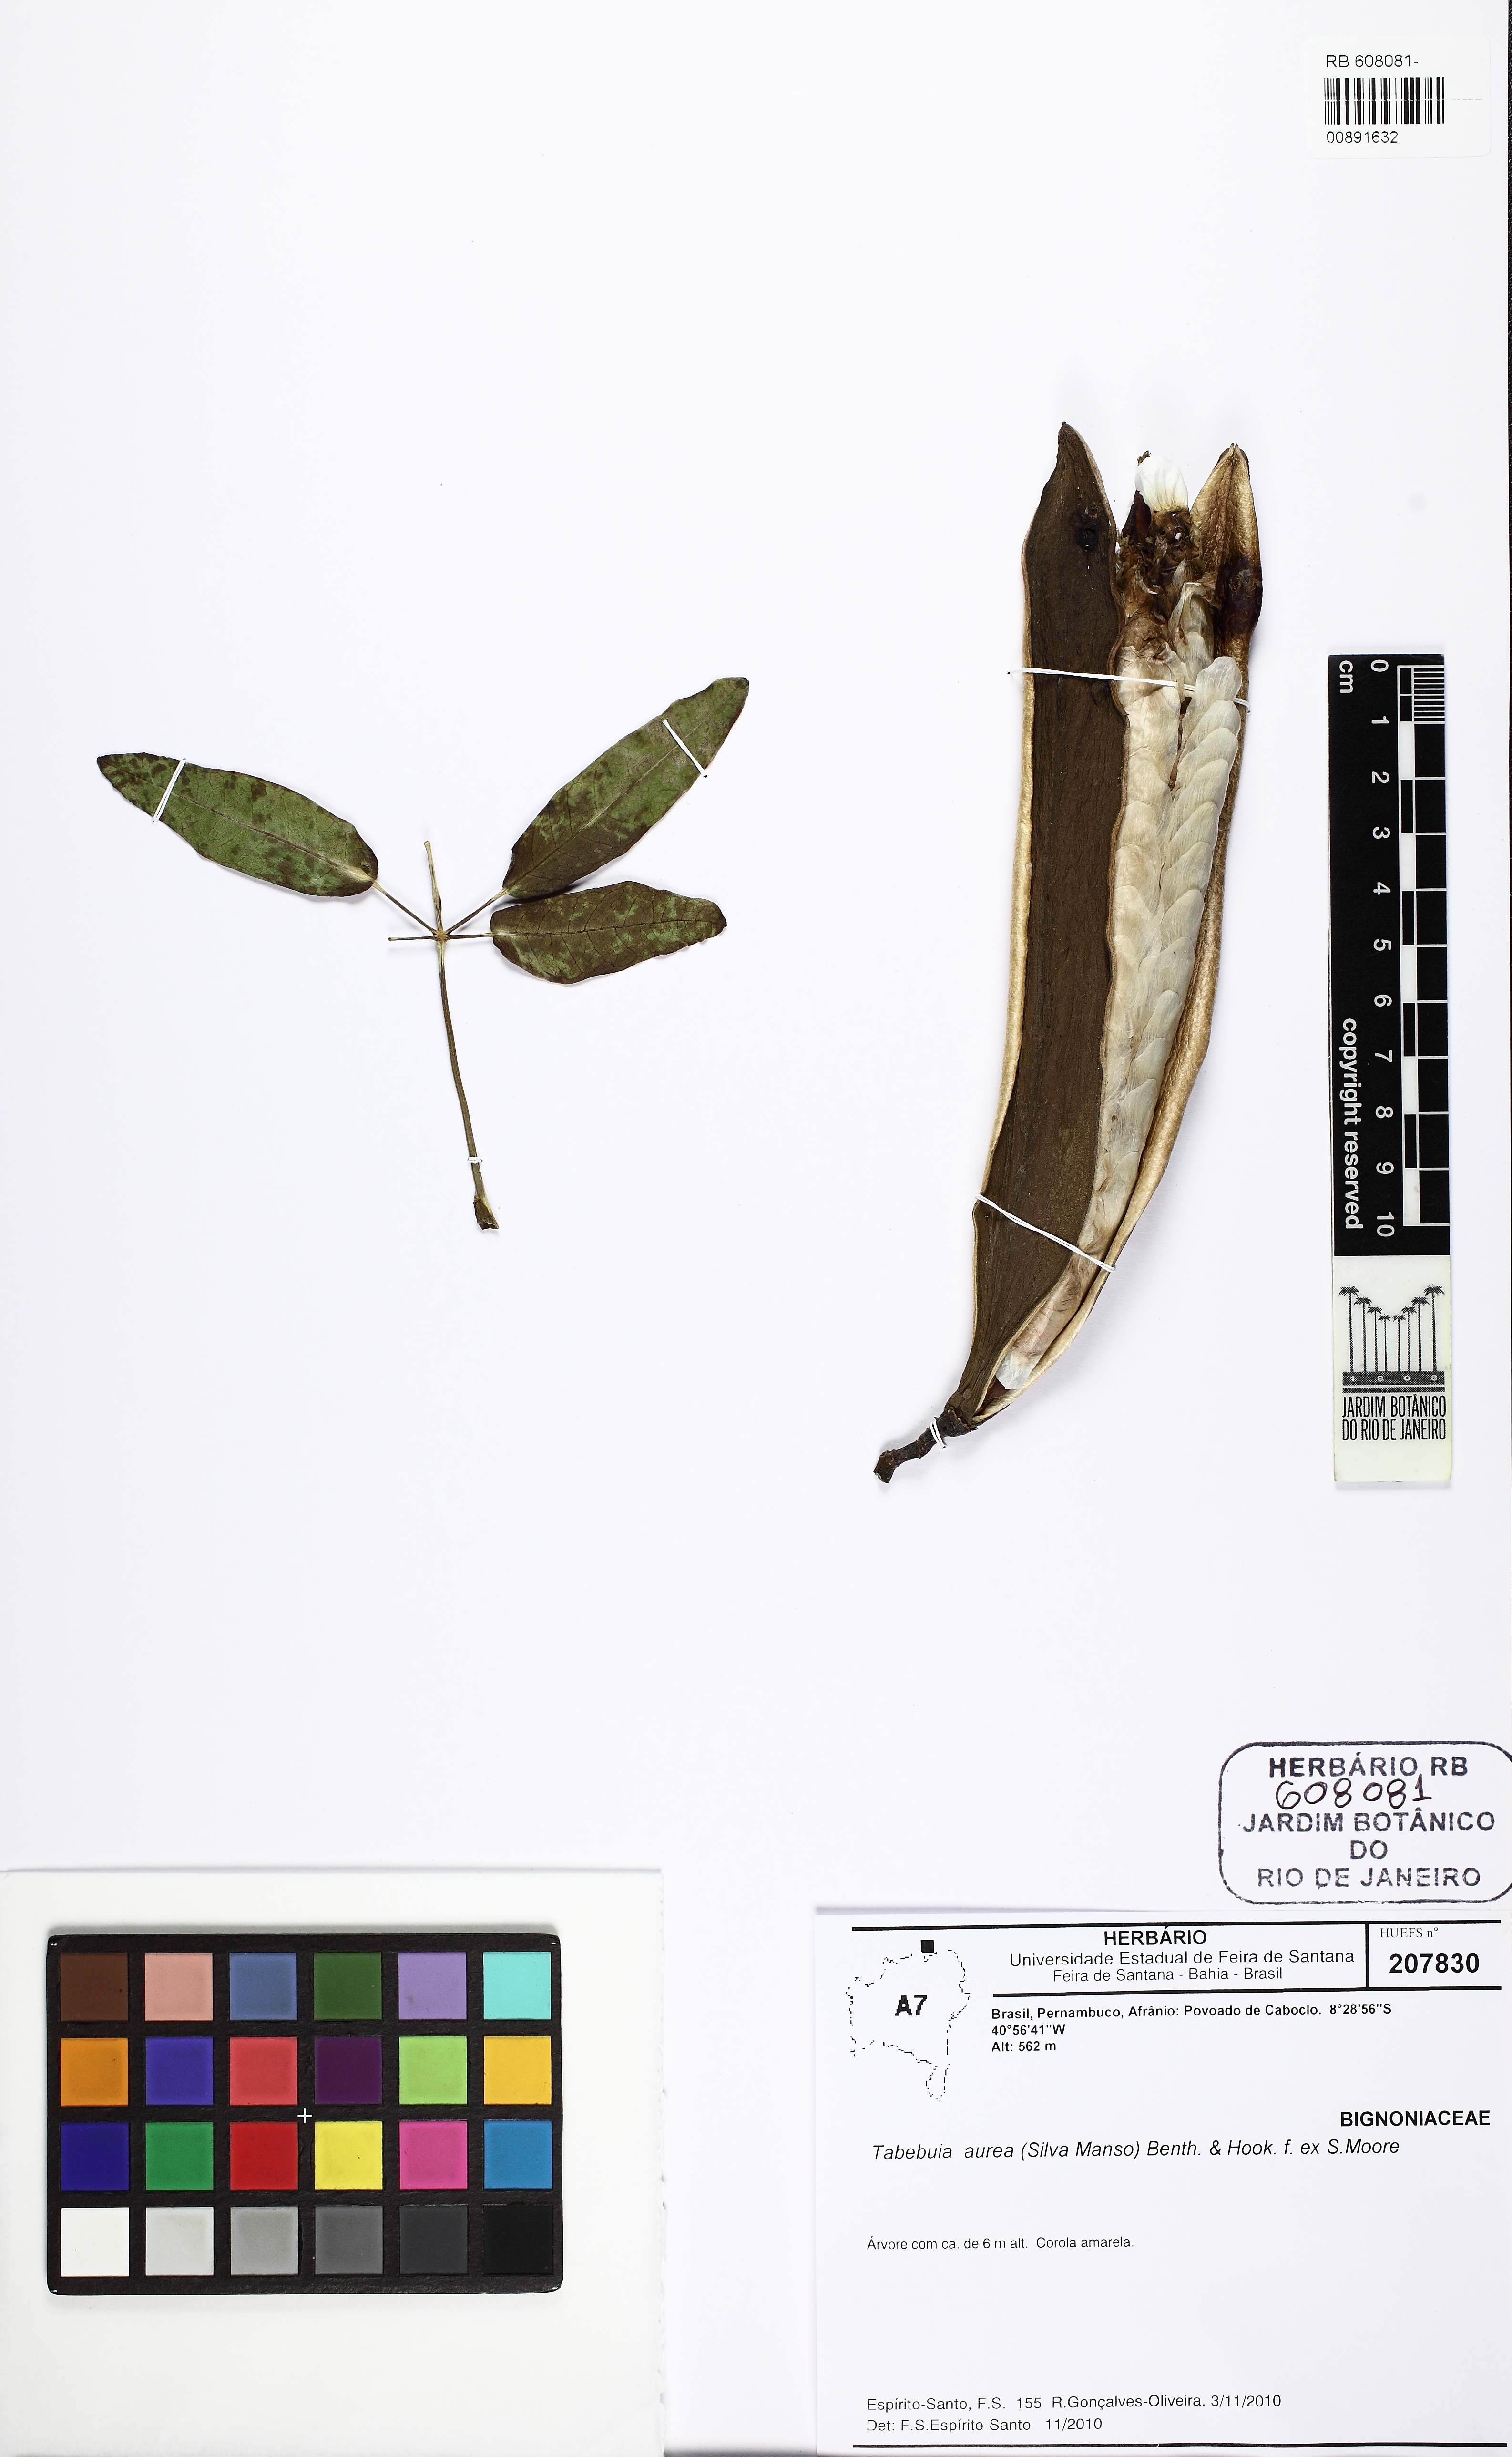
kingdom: Plantae
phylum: Tracheophyta
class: Magnoliopsida
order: Lamiales
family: Bignoniaceae
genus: Tabebuia
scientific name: Tabebuia aurea
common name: Caribbean trumpet-tree
